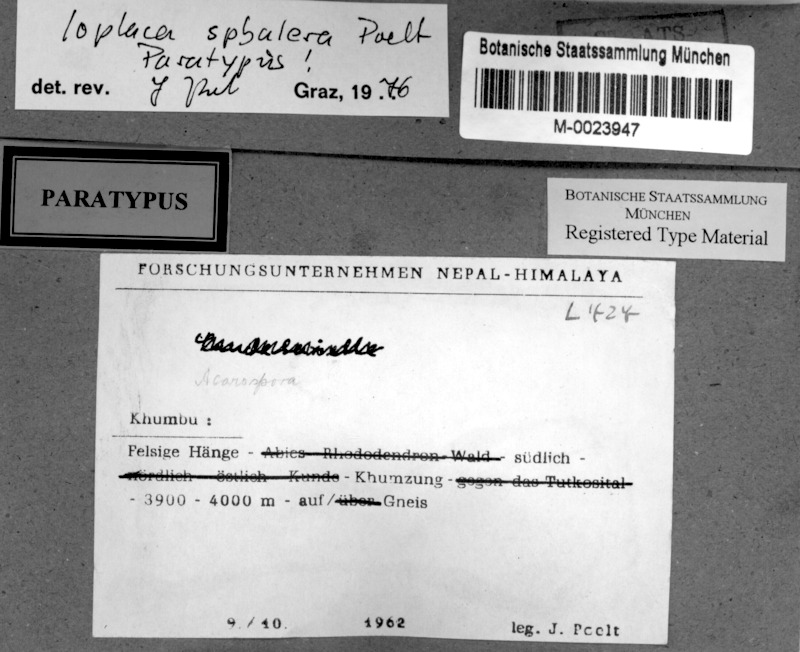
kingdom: Fungi
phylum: Ascomycota
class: Lecanoromycetes
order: Teloschistales
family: Teloschistaceae
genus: Ioplaca
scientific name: Ioplaca pindarensis
